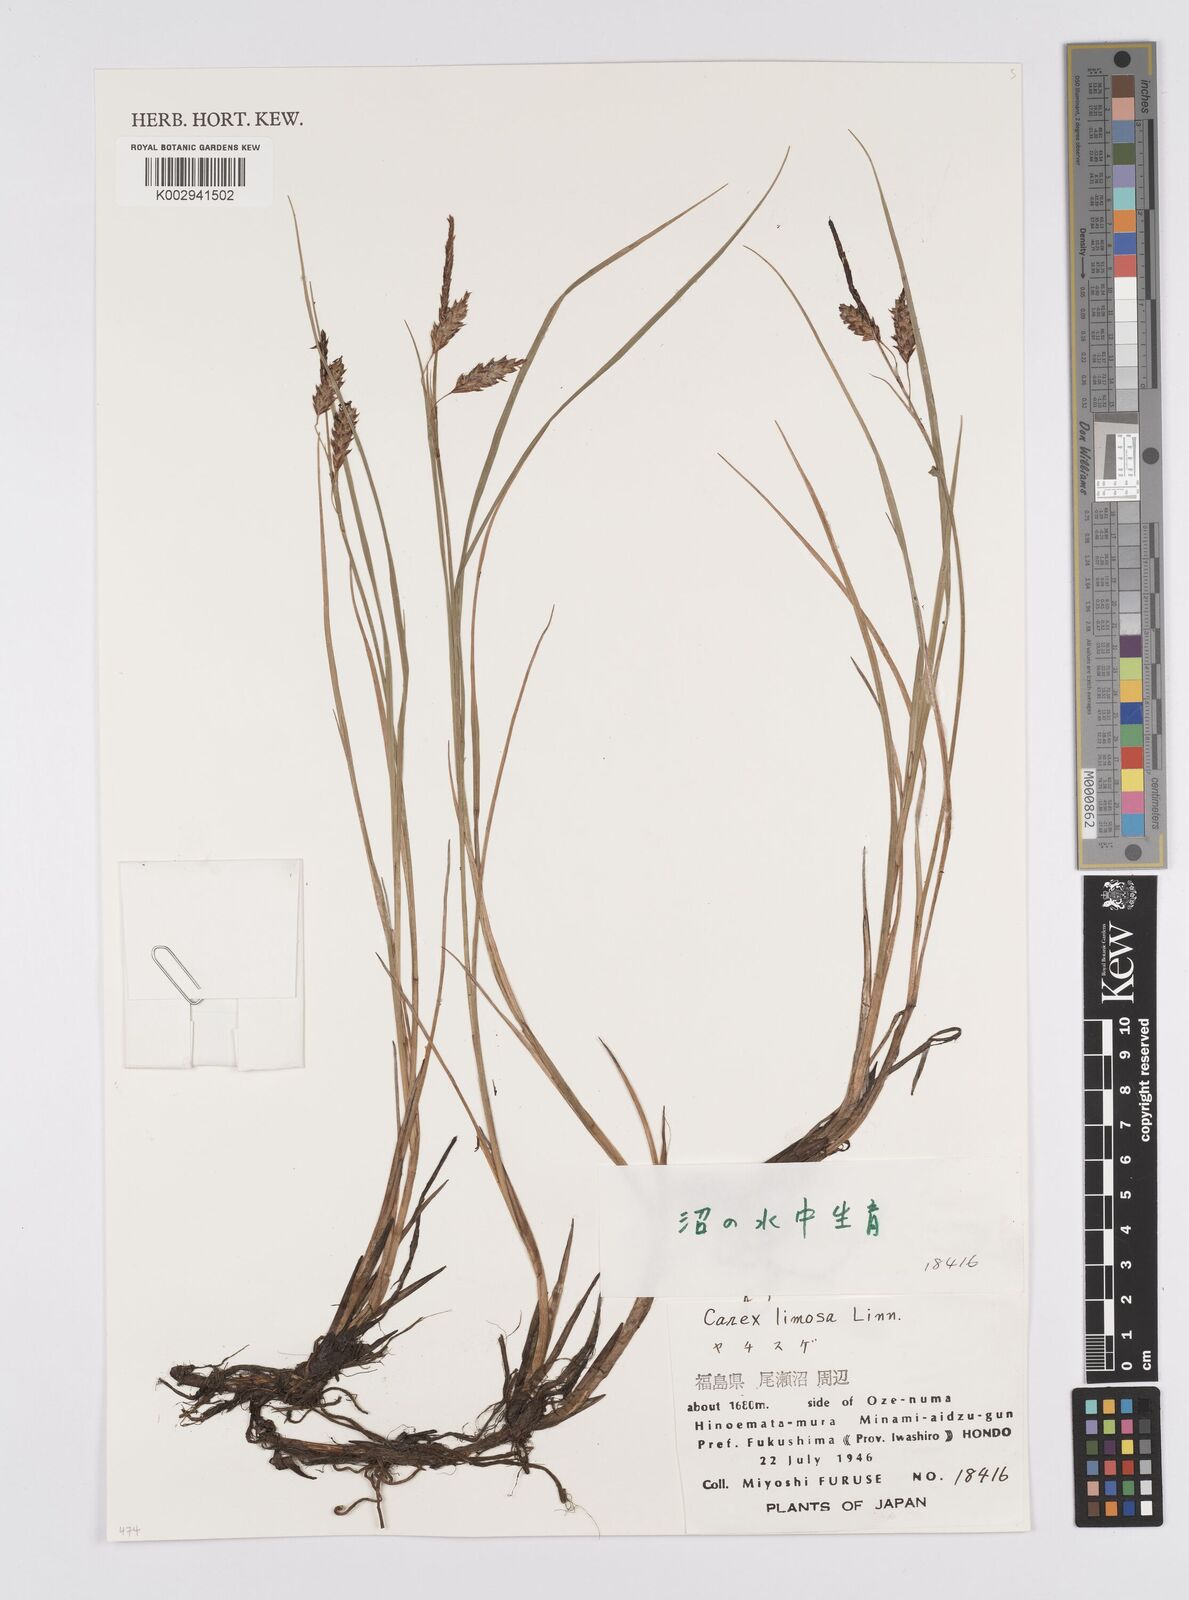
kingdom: Plantae
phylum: Tracheophyta
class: Liliopsida
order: Poales
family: Cyperaceae
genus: Carex
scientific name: Carex limosa
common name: Bog sedge
